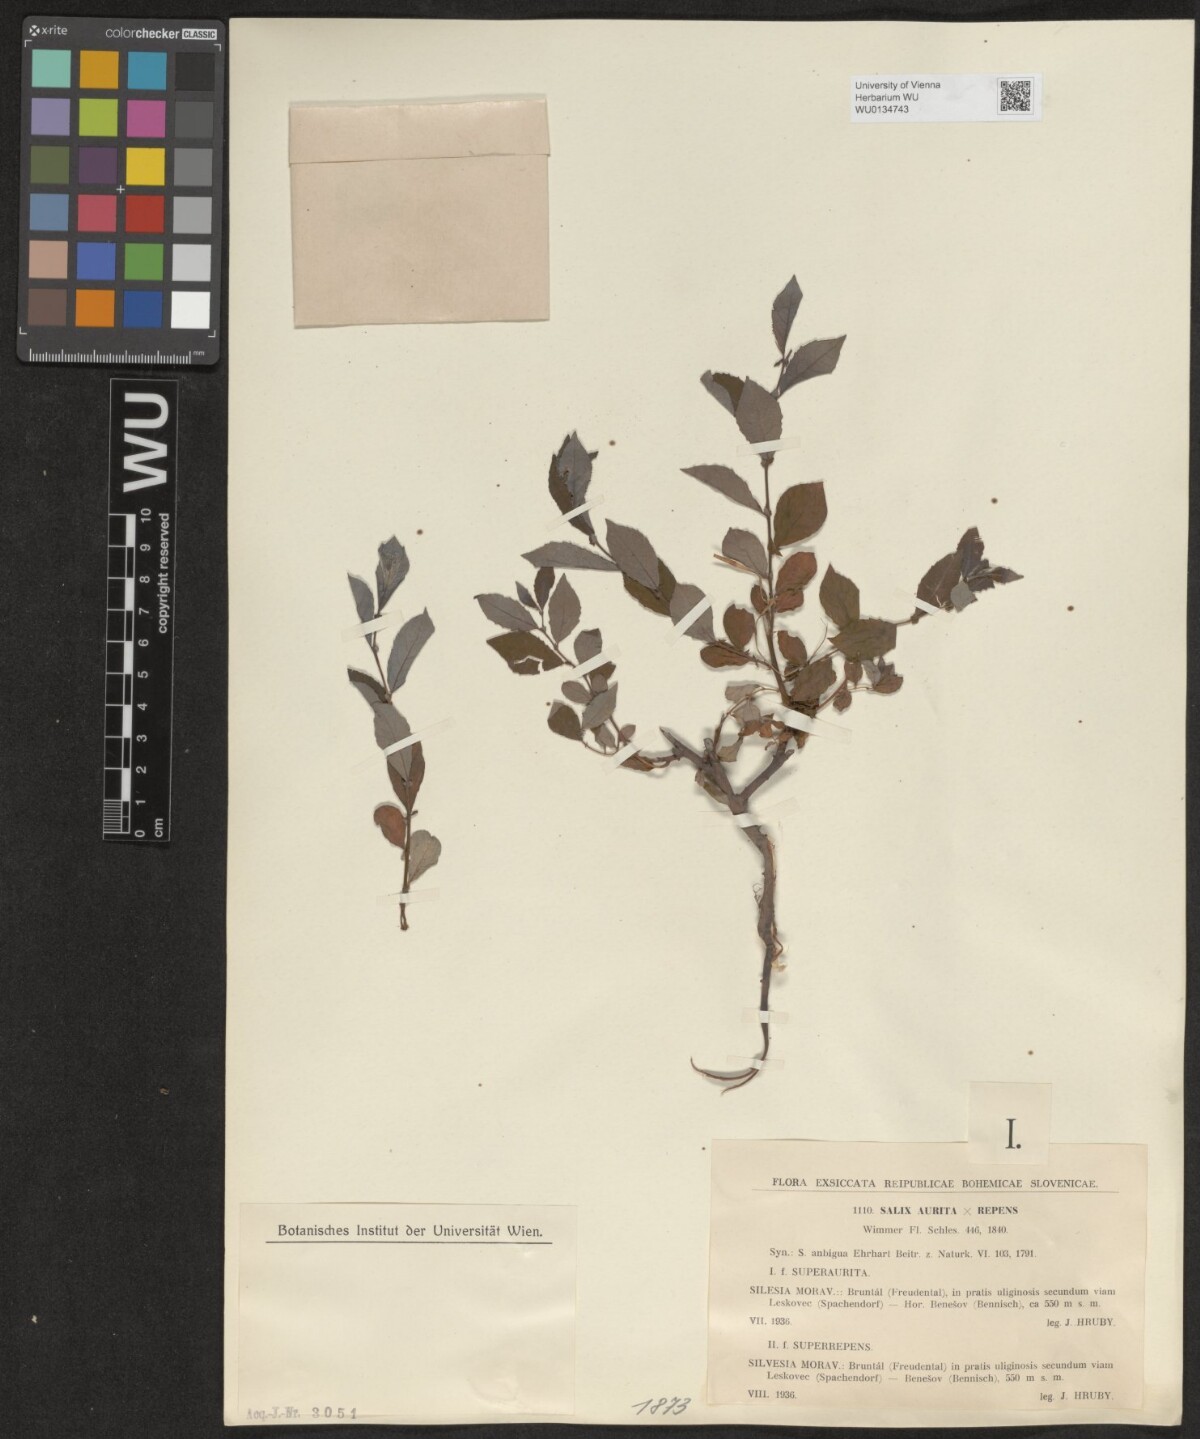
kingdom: Plantae
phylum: Tracheophyta
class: Magnoliopsida
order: Malpighiales
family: Salicaceae
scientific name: Salicaceae
